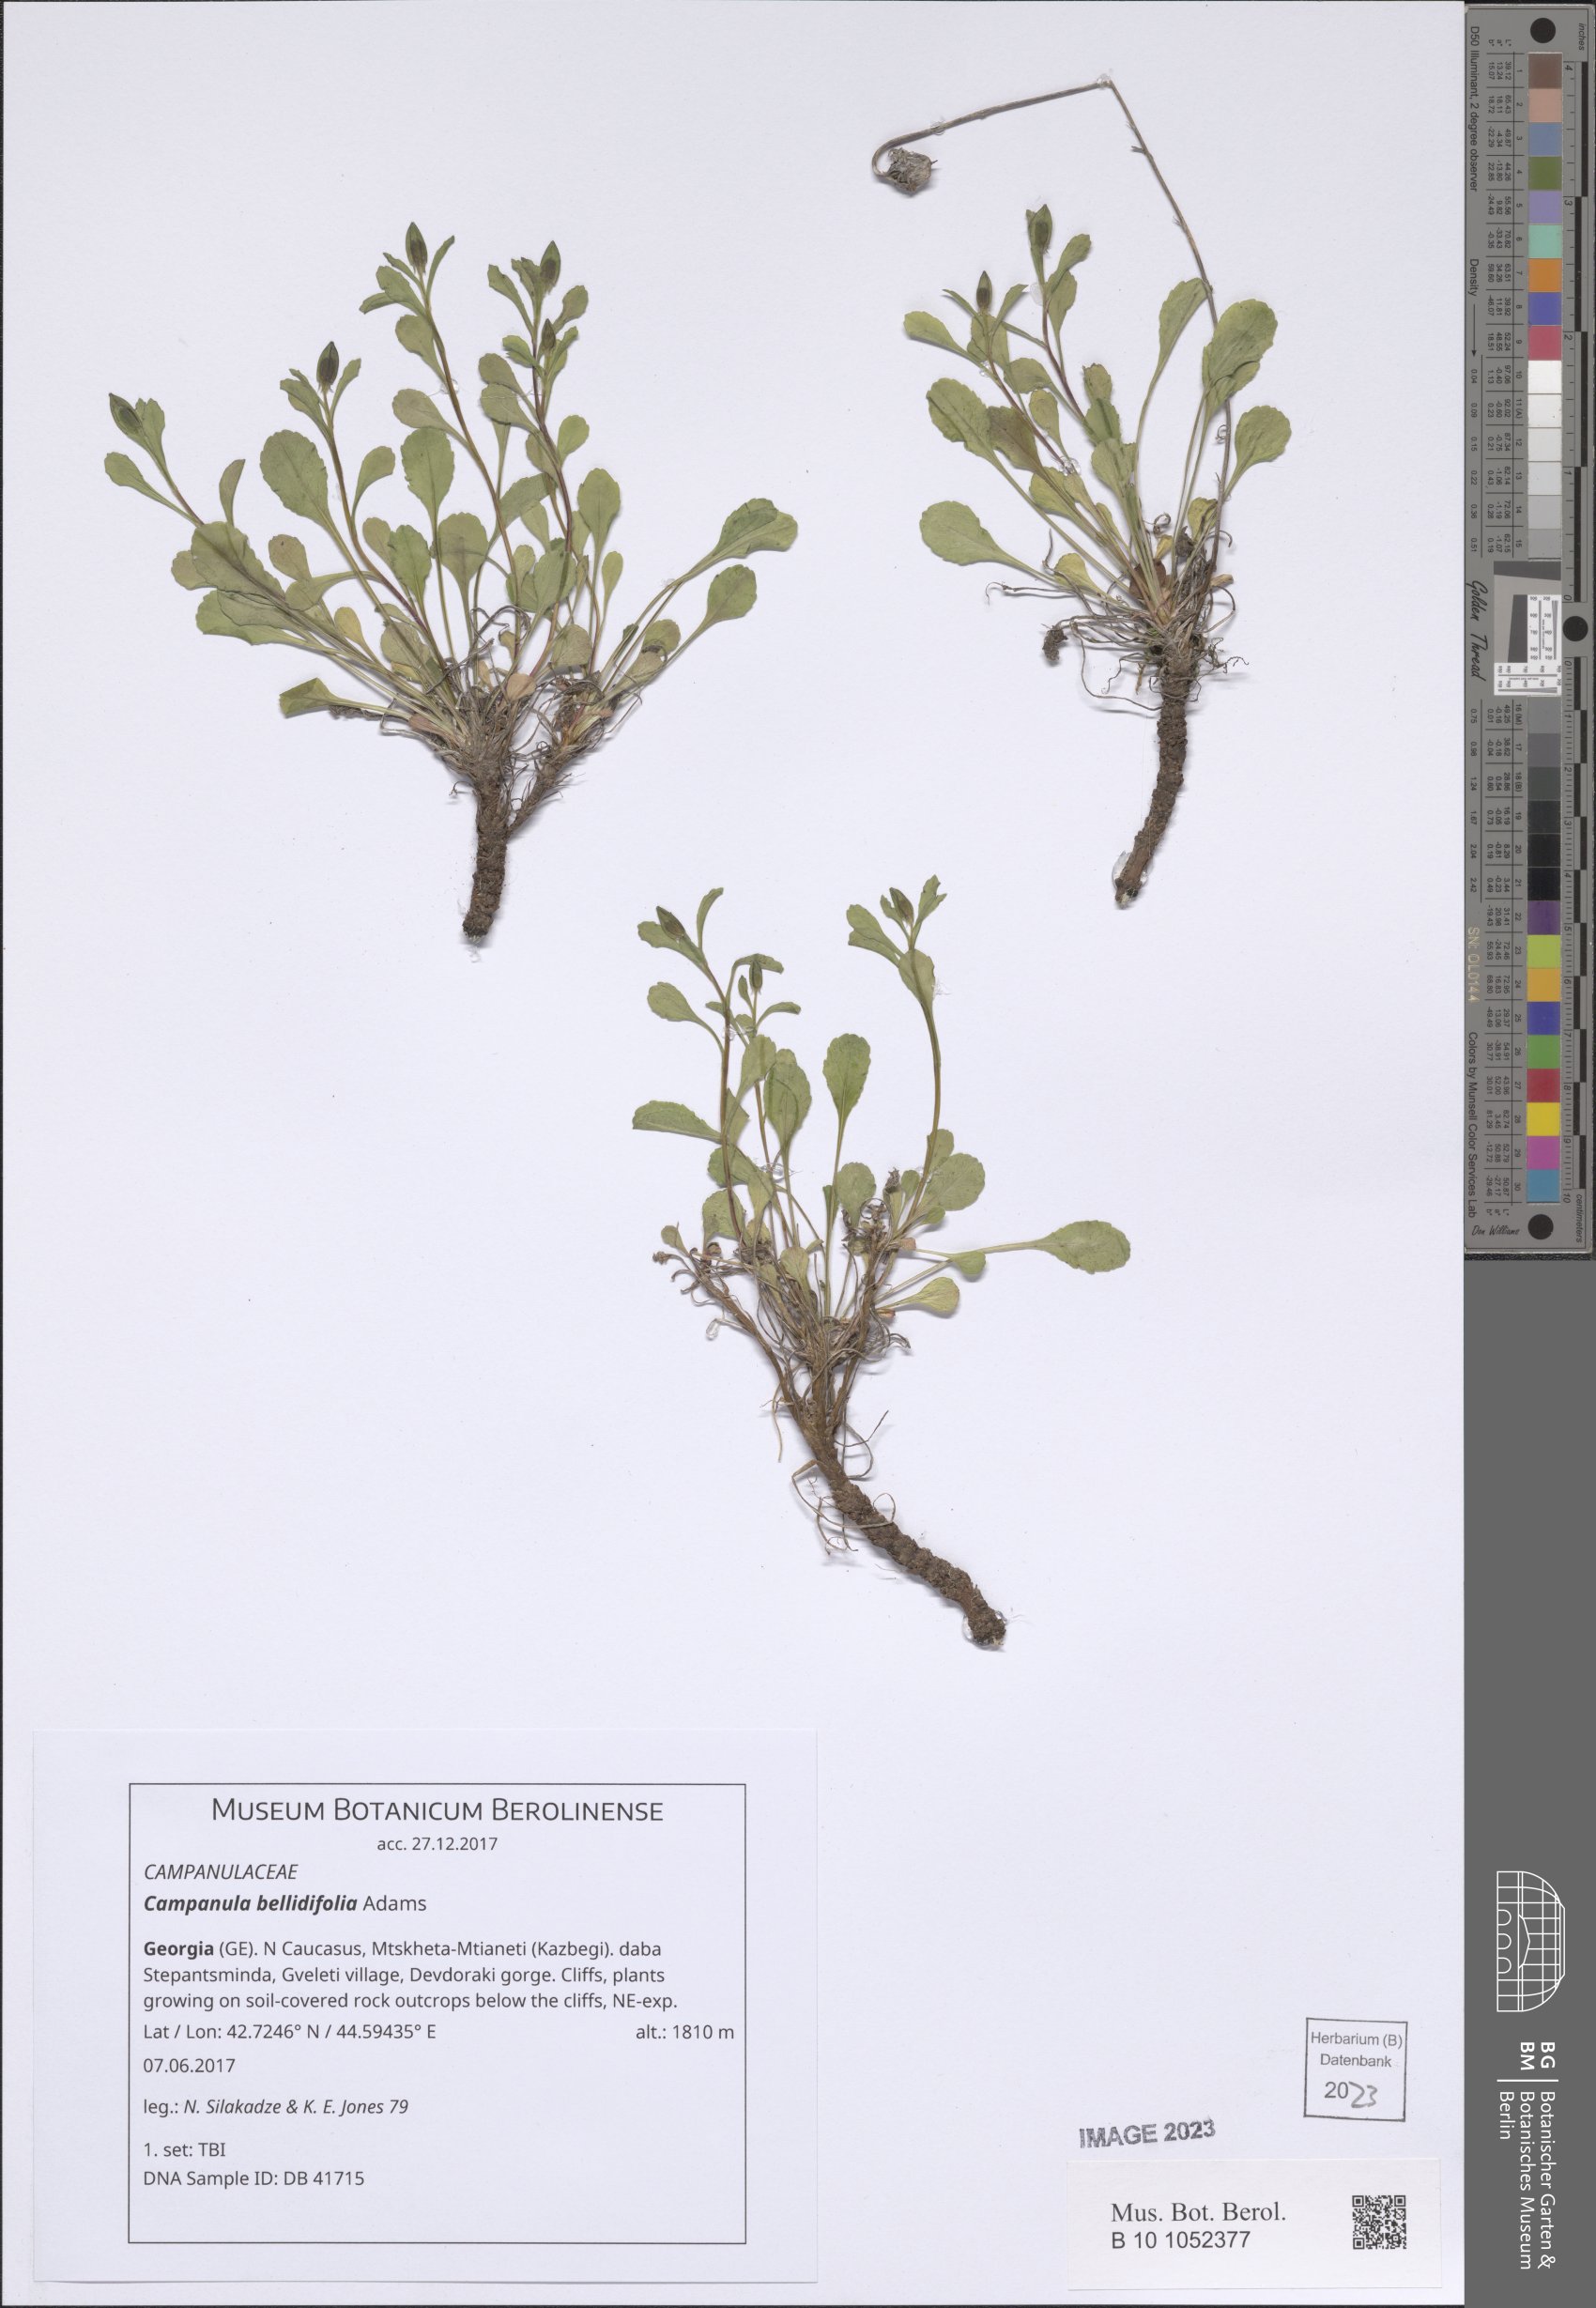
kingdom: Plantae
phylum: Tracheophyta
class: Magnoliopsida
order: Asterales
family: Campanulaceae
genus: Campanula
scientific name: Campanula bellidifolia
